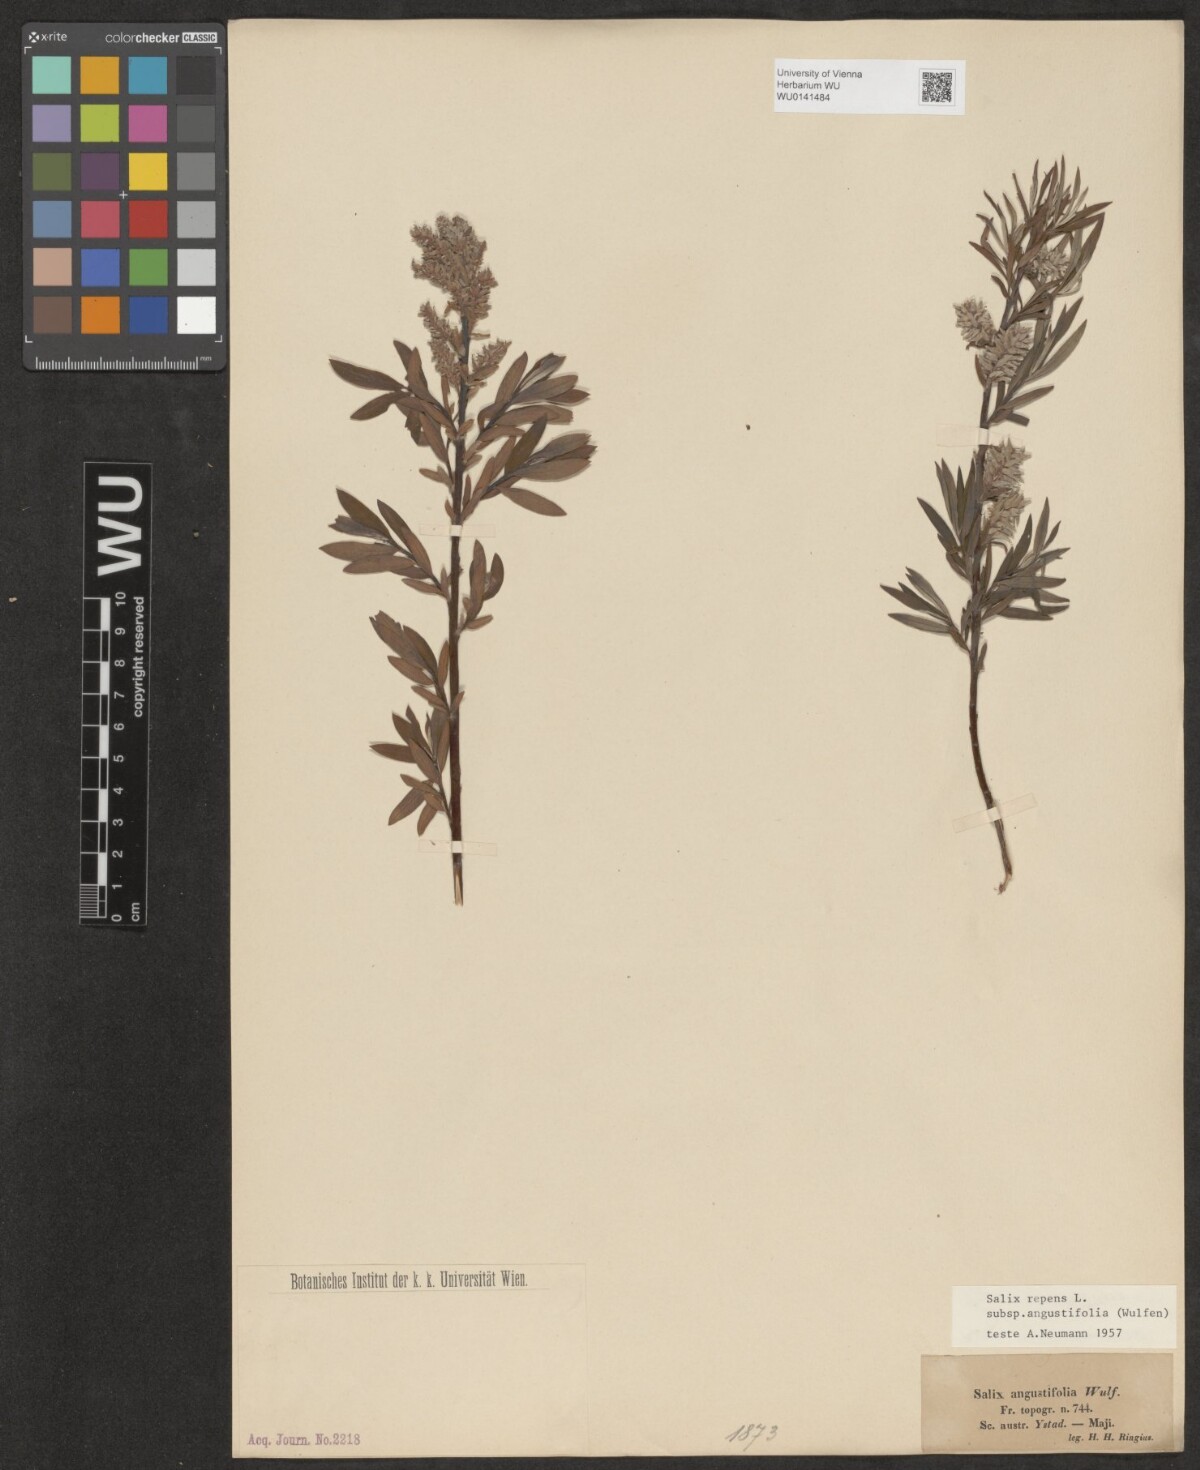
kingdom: Plantae
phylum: Tracheophyta
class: Magnoliopsida
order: Malpighiales
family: Salicaceae
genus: Salix
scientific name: Salix rosmarinifolia
